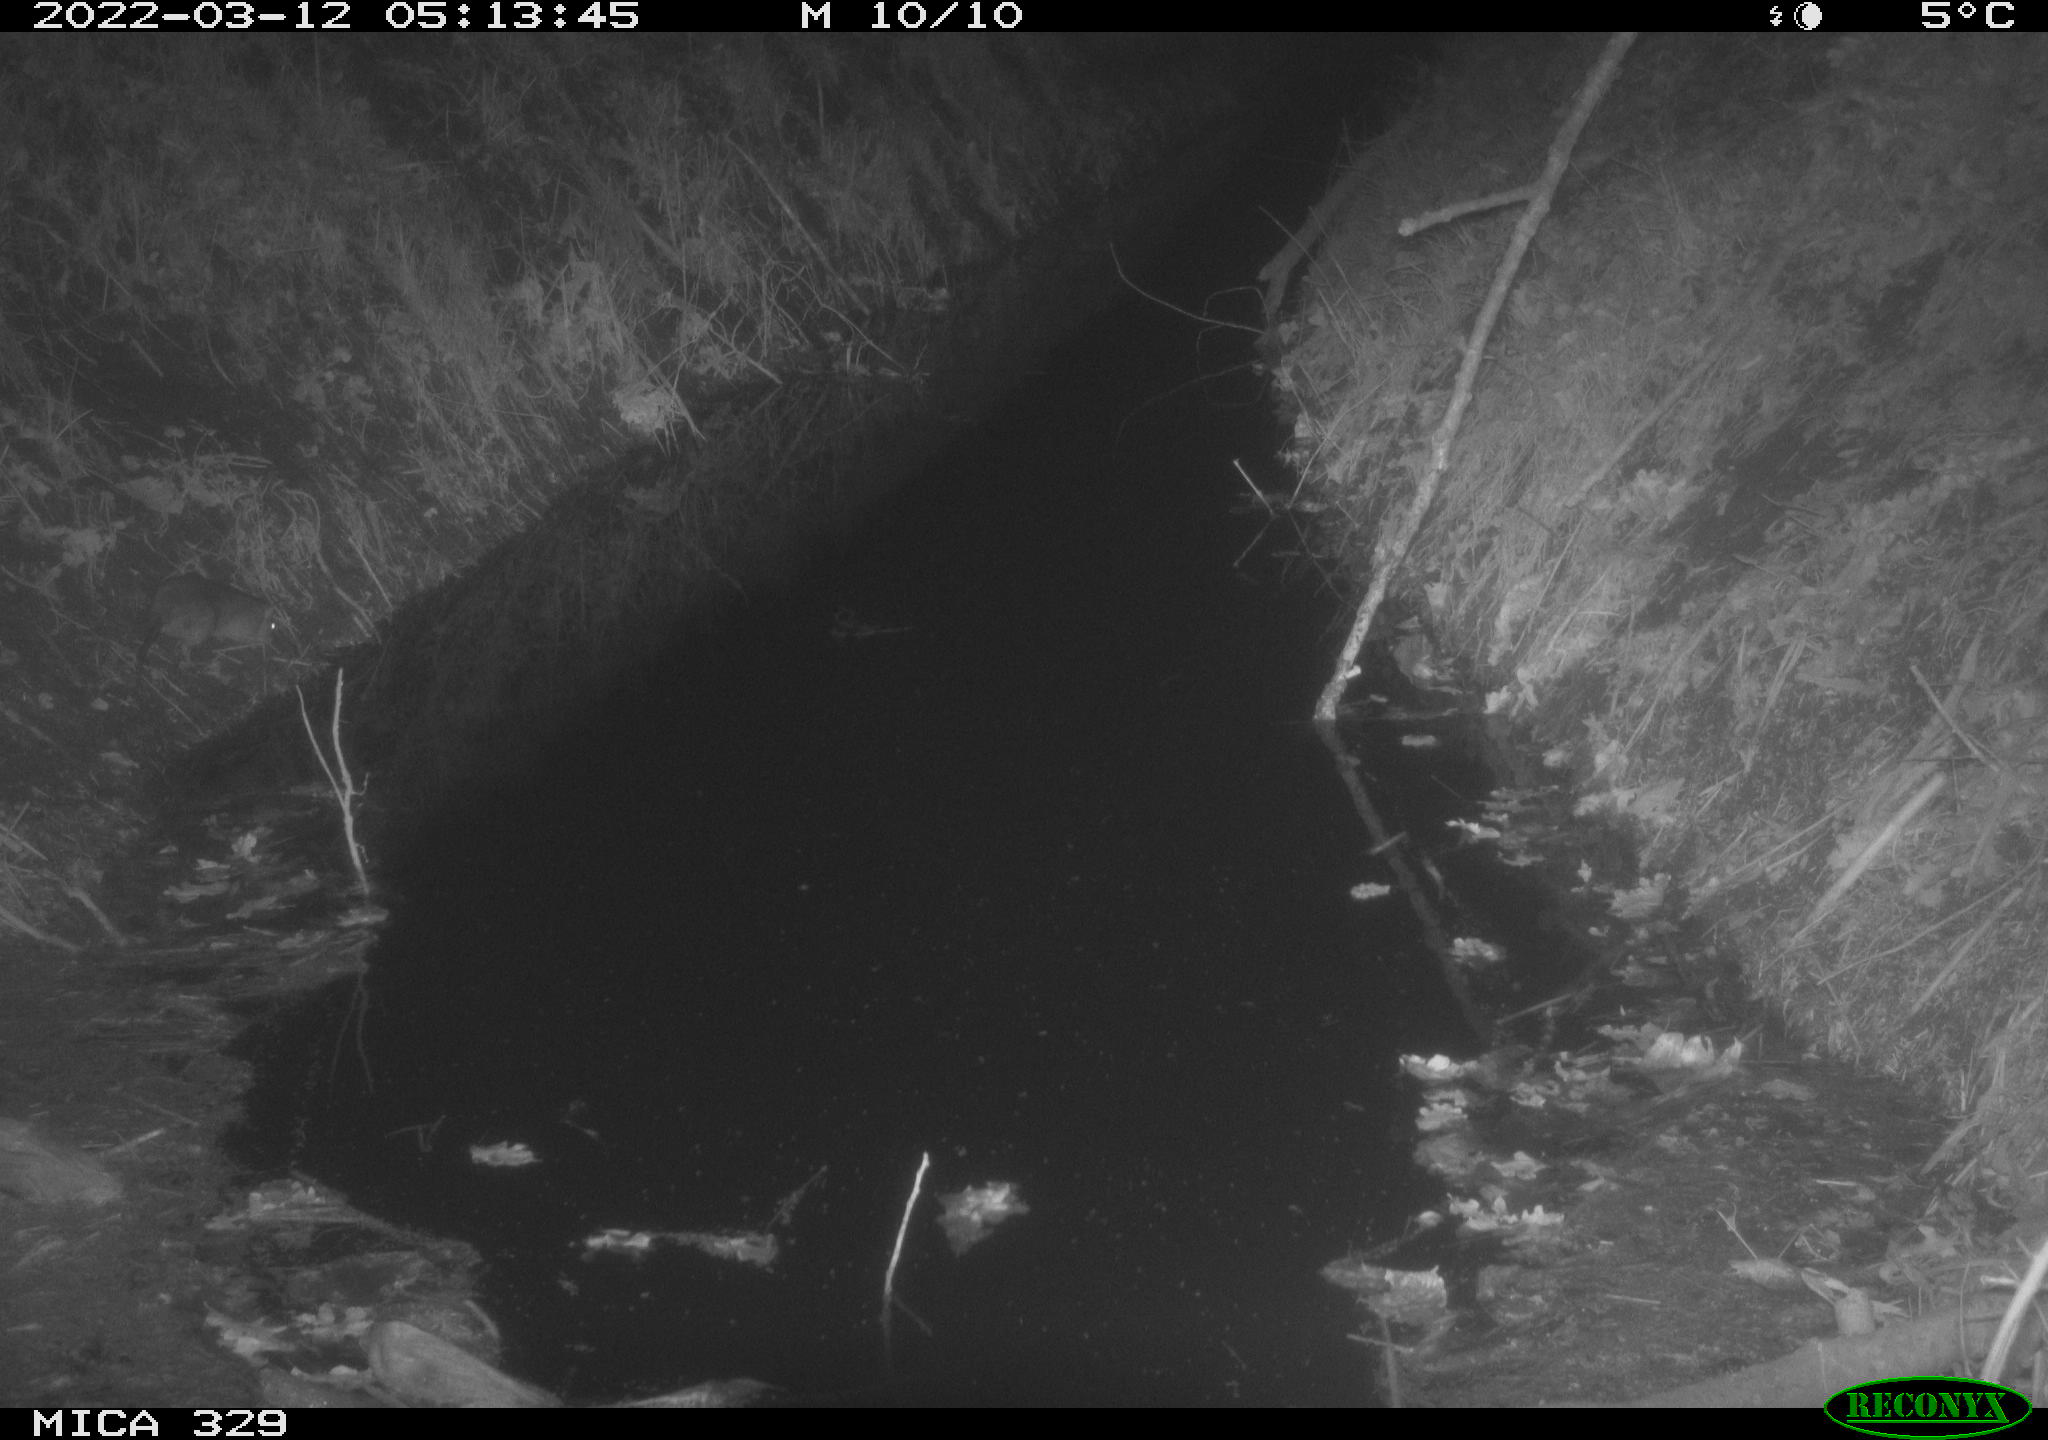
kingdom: Animalia
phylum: Chordata
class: Mammalia
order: Rodentia
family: Muridae
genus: Rattus
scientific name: Rattus norvegicus
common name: Brown rat
